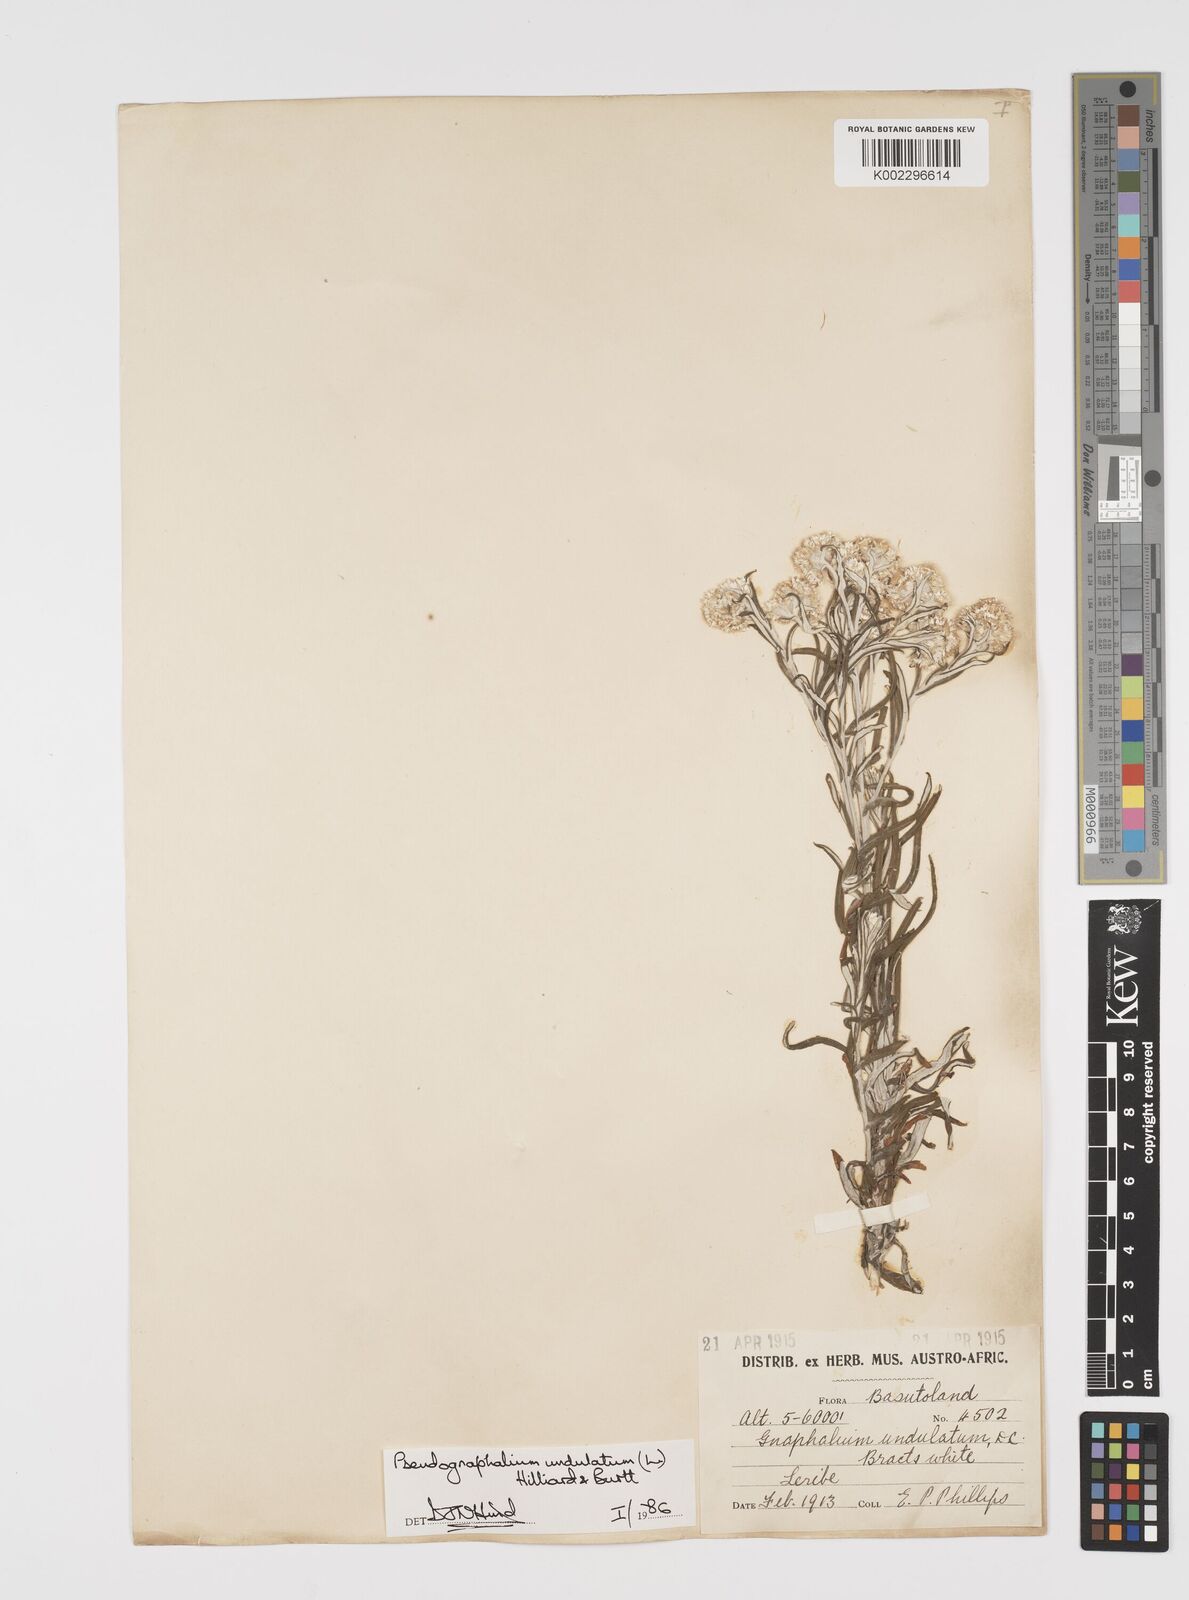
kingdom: Plantae
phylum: Tracheophyta
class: Magnoliopsida
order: Asterales
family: Asteraceae
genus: Pseudognaphalium
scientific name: Pseudognaphalium undulatum
